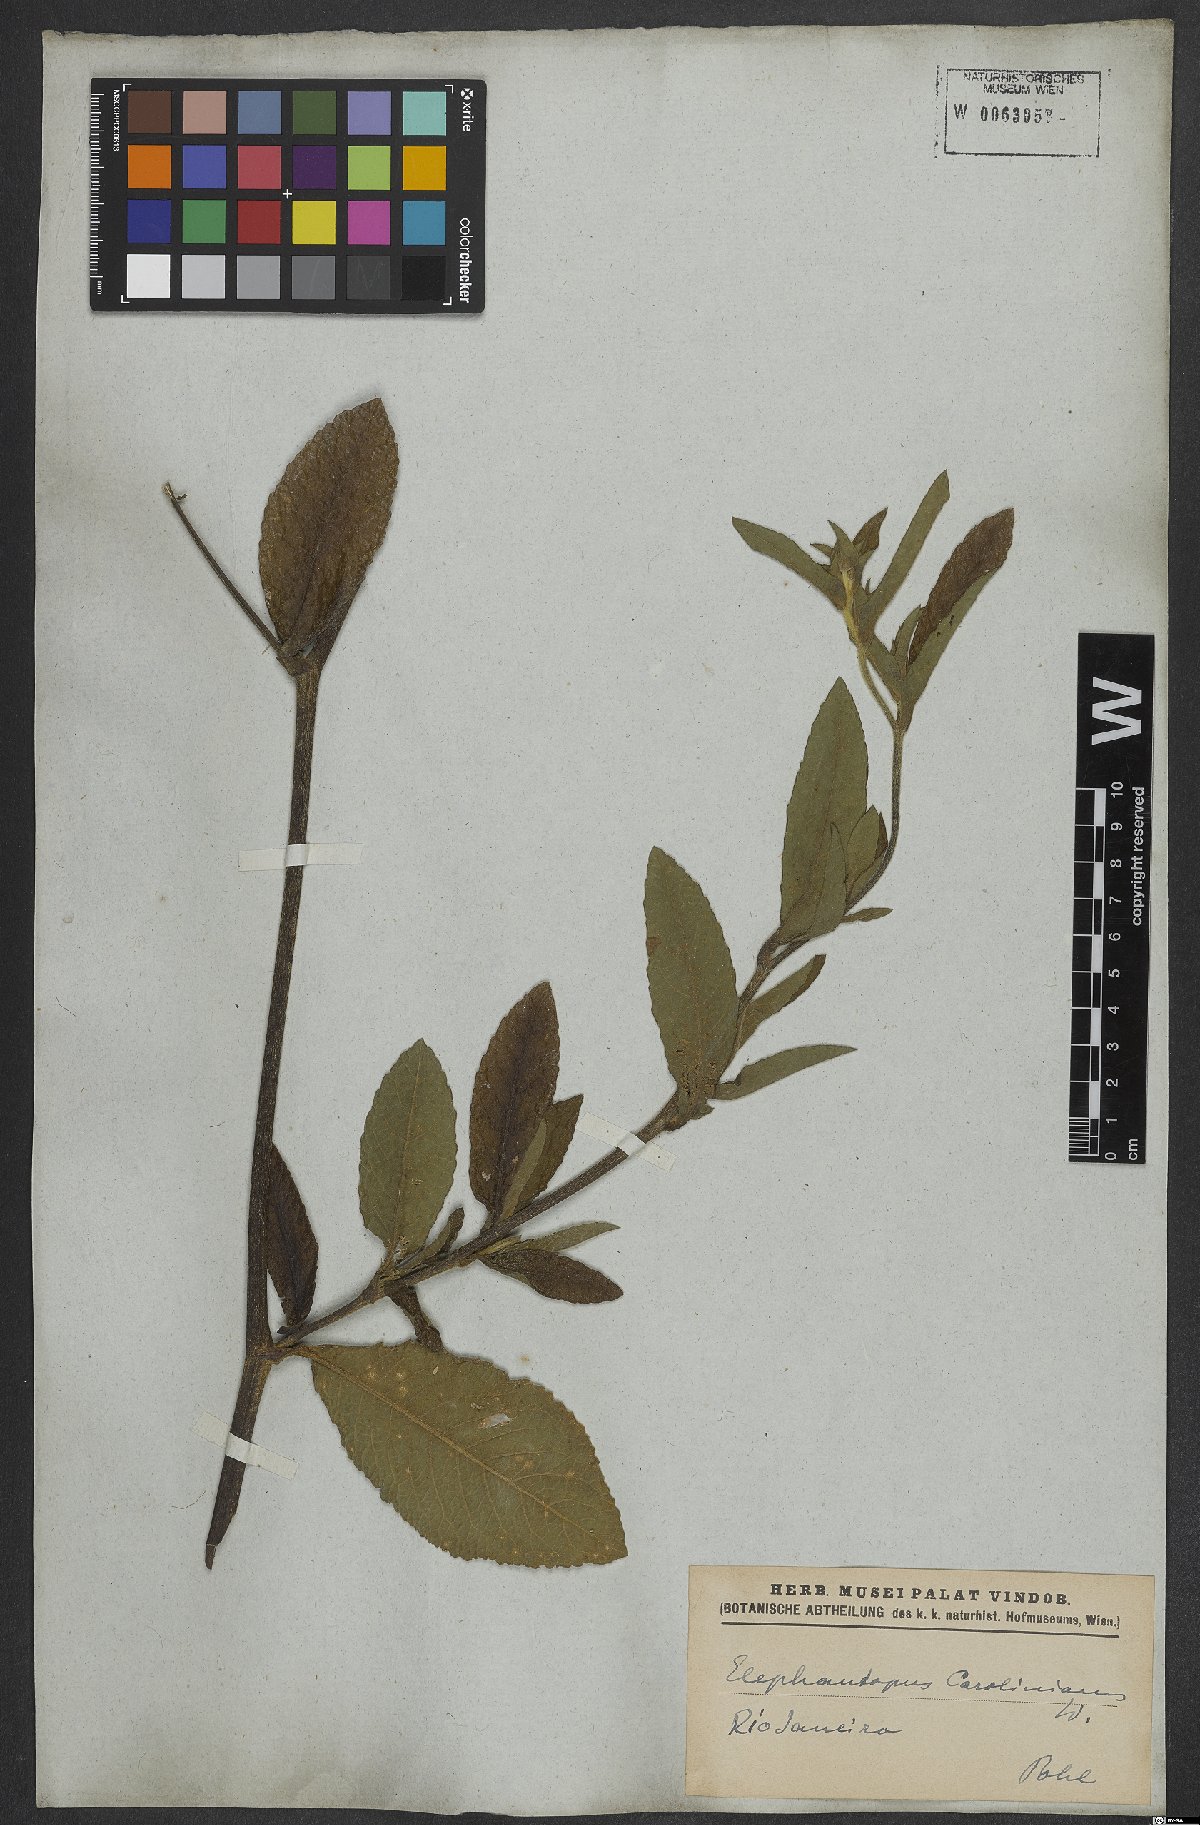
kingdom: Plantae
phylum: Tracheophyta
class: Magnoliopsida
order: Asterales
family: Asteraceae
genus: Elephantopus
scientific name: Elephantopus carolinianus
